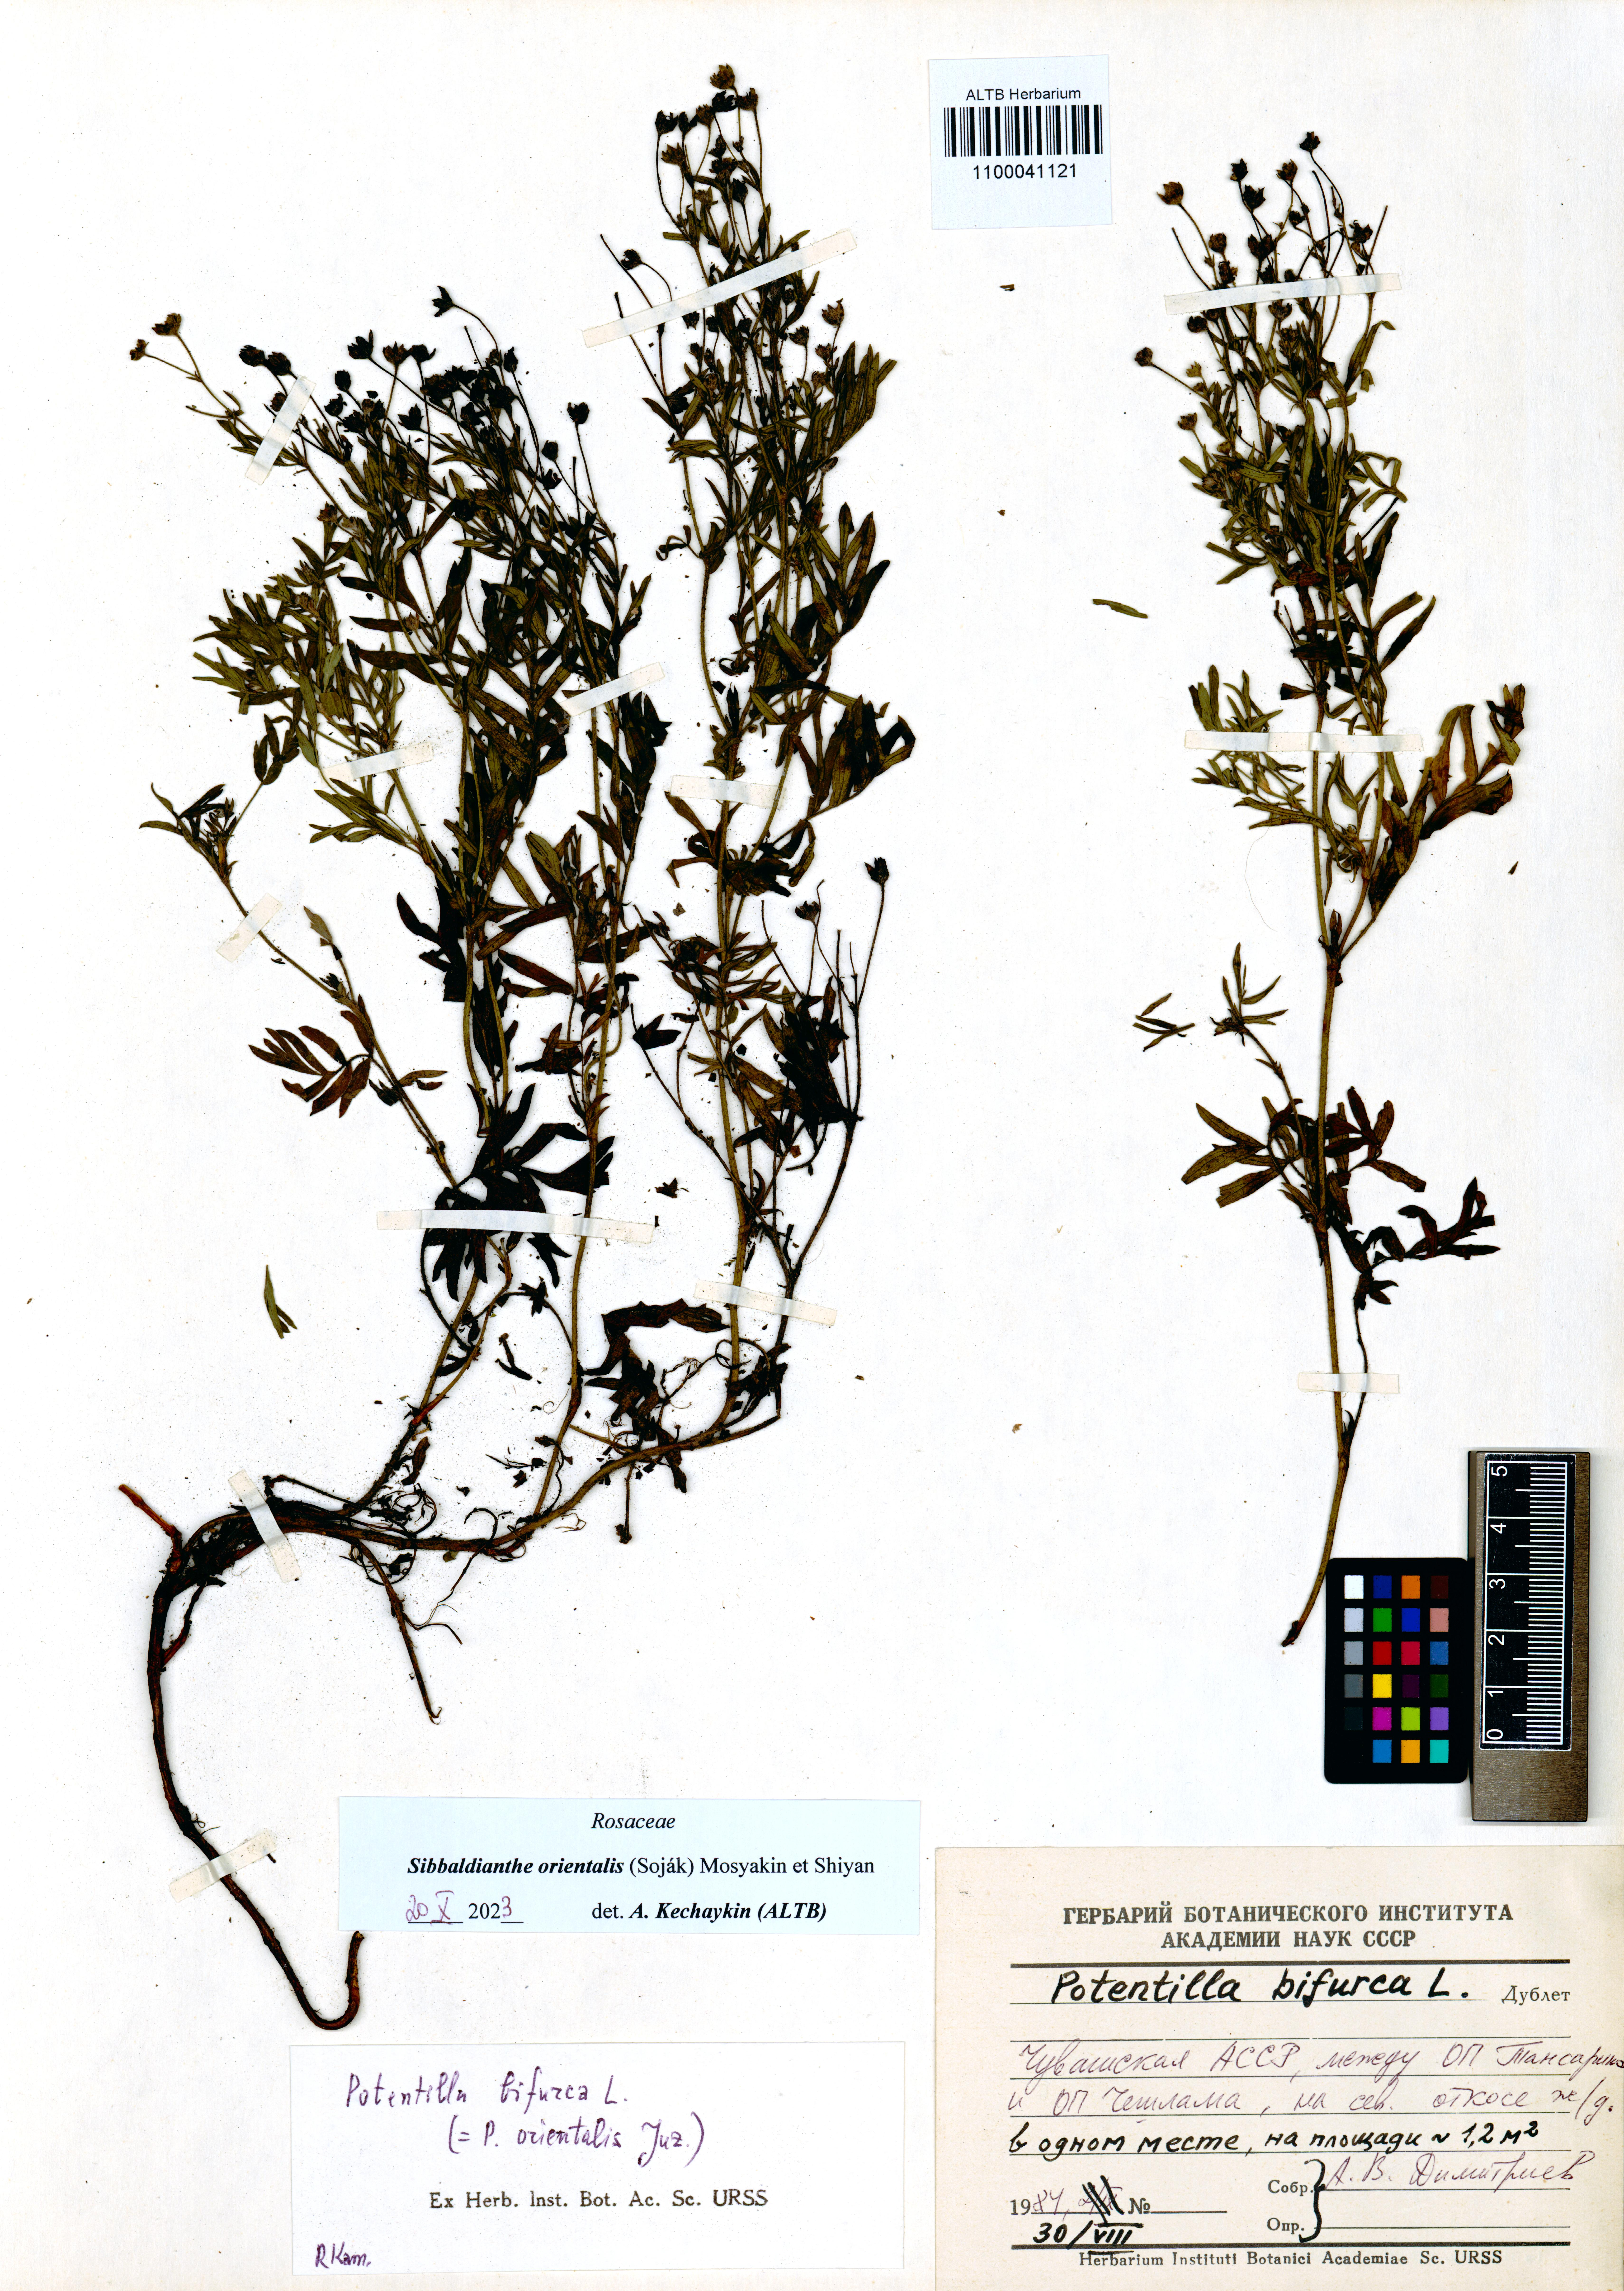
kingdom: Plantae
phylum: Tracheophyta
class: Magnoliopsida
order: Rosales
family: Rosaceae
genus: Sibbaldianthe
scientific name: Sibbaldianthe orientalis
